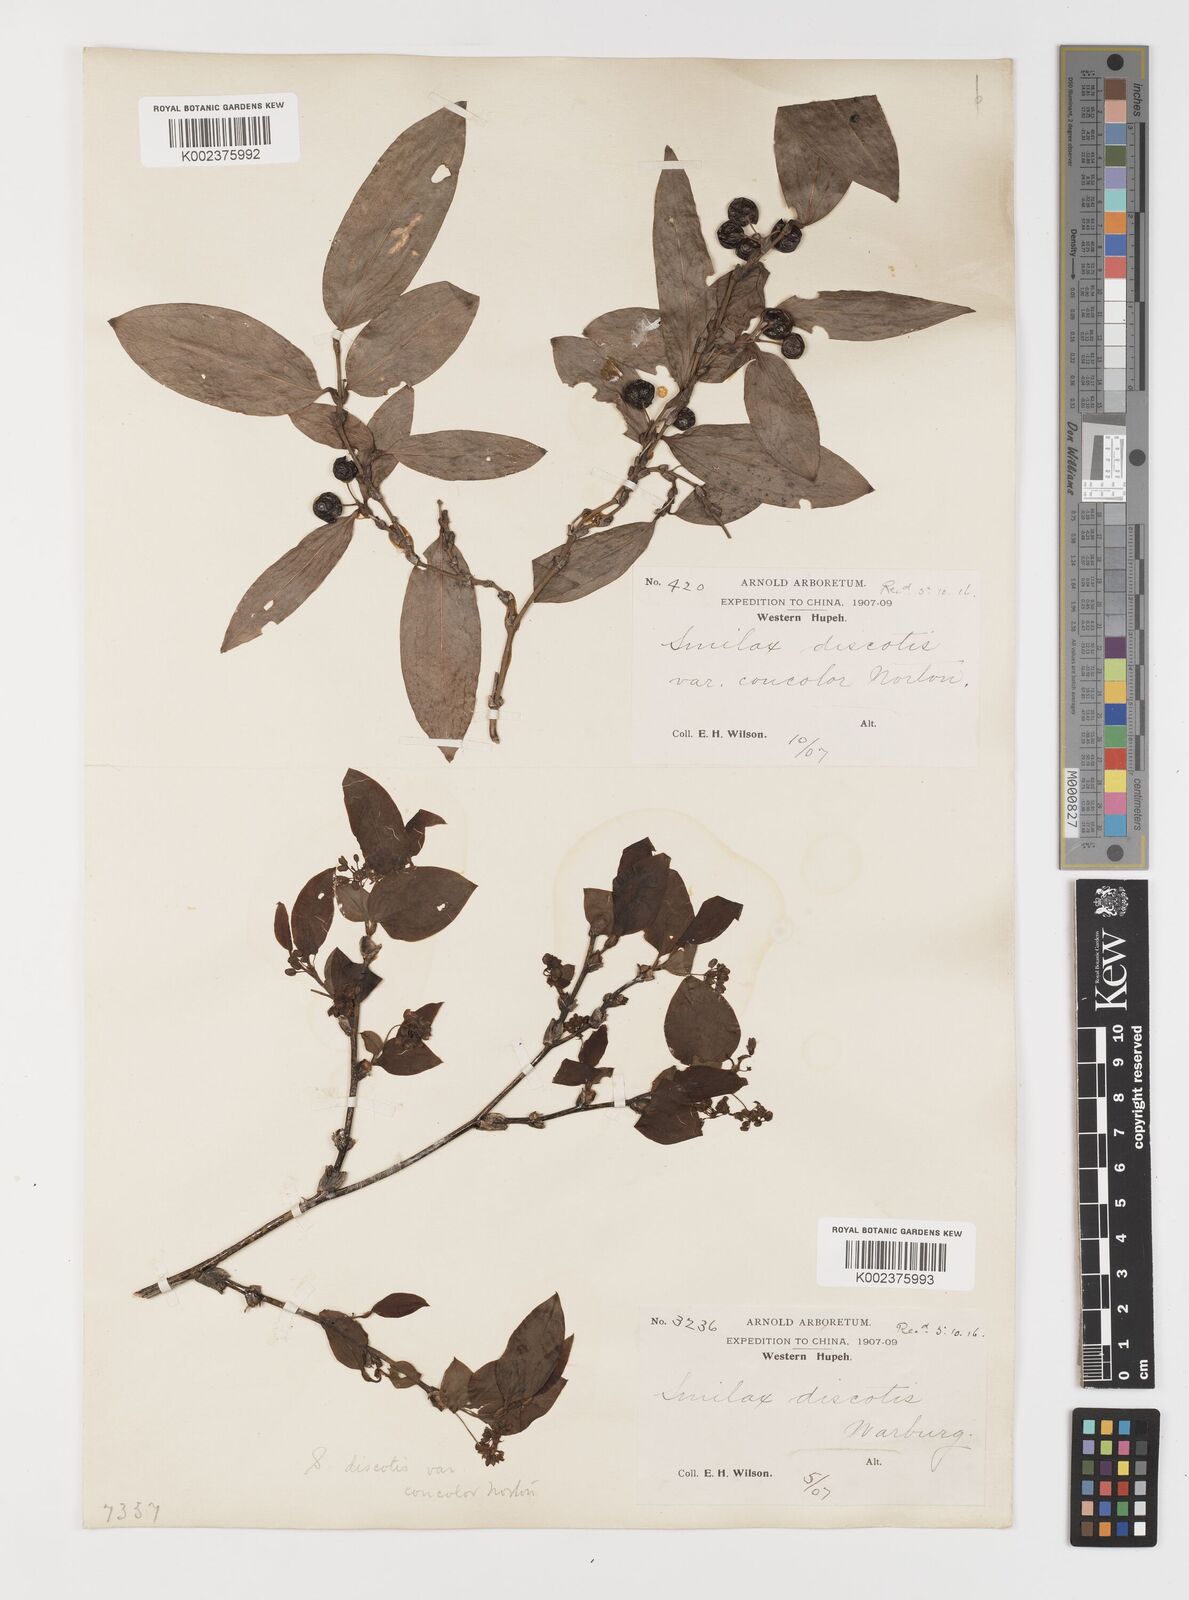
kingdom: Plantae
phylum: Tracheophyta
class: Liliopsida
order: Liliales
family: Smilacaceae
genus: Smilax
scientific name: Smilax discotis
